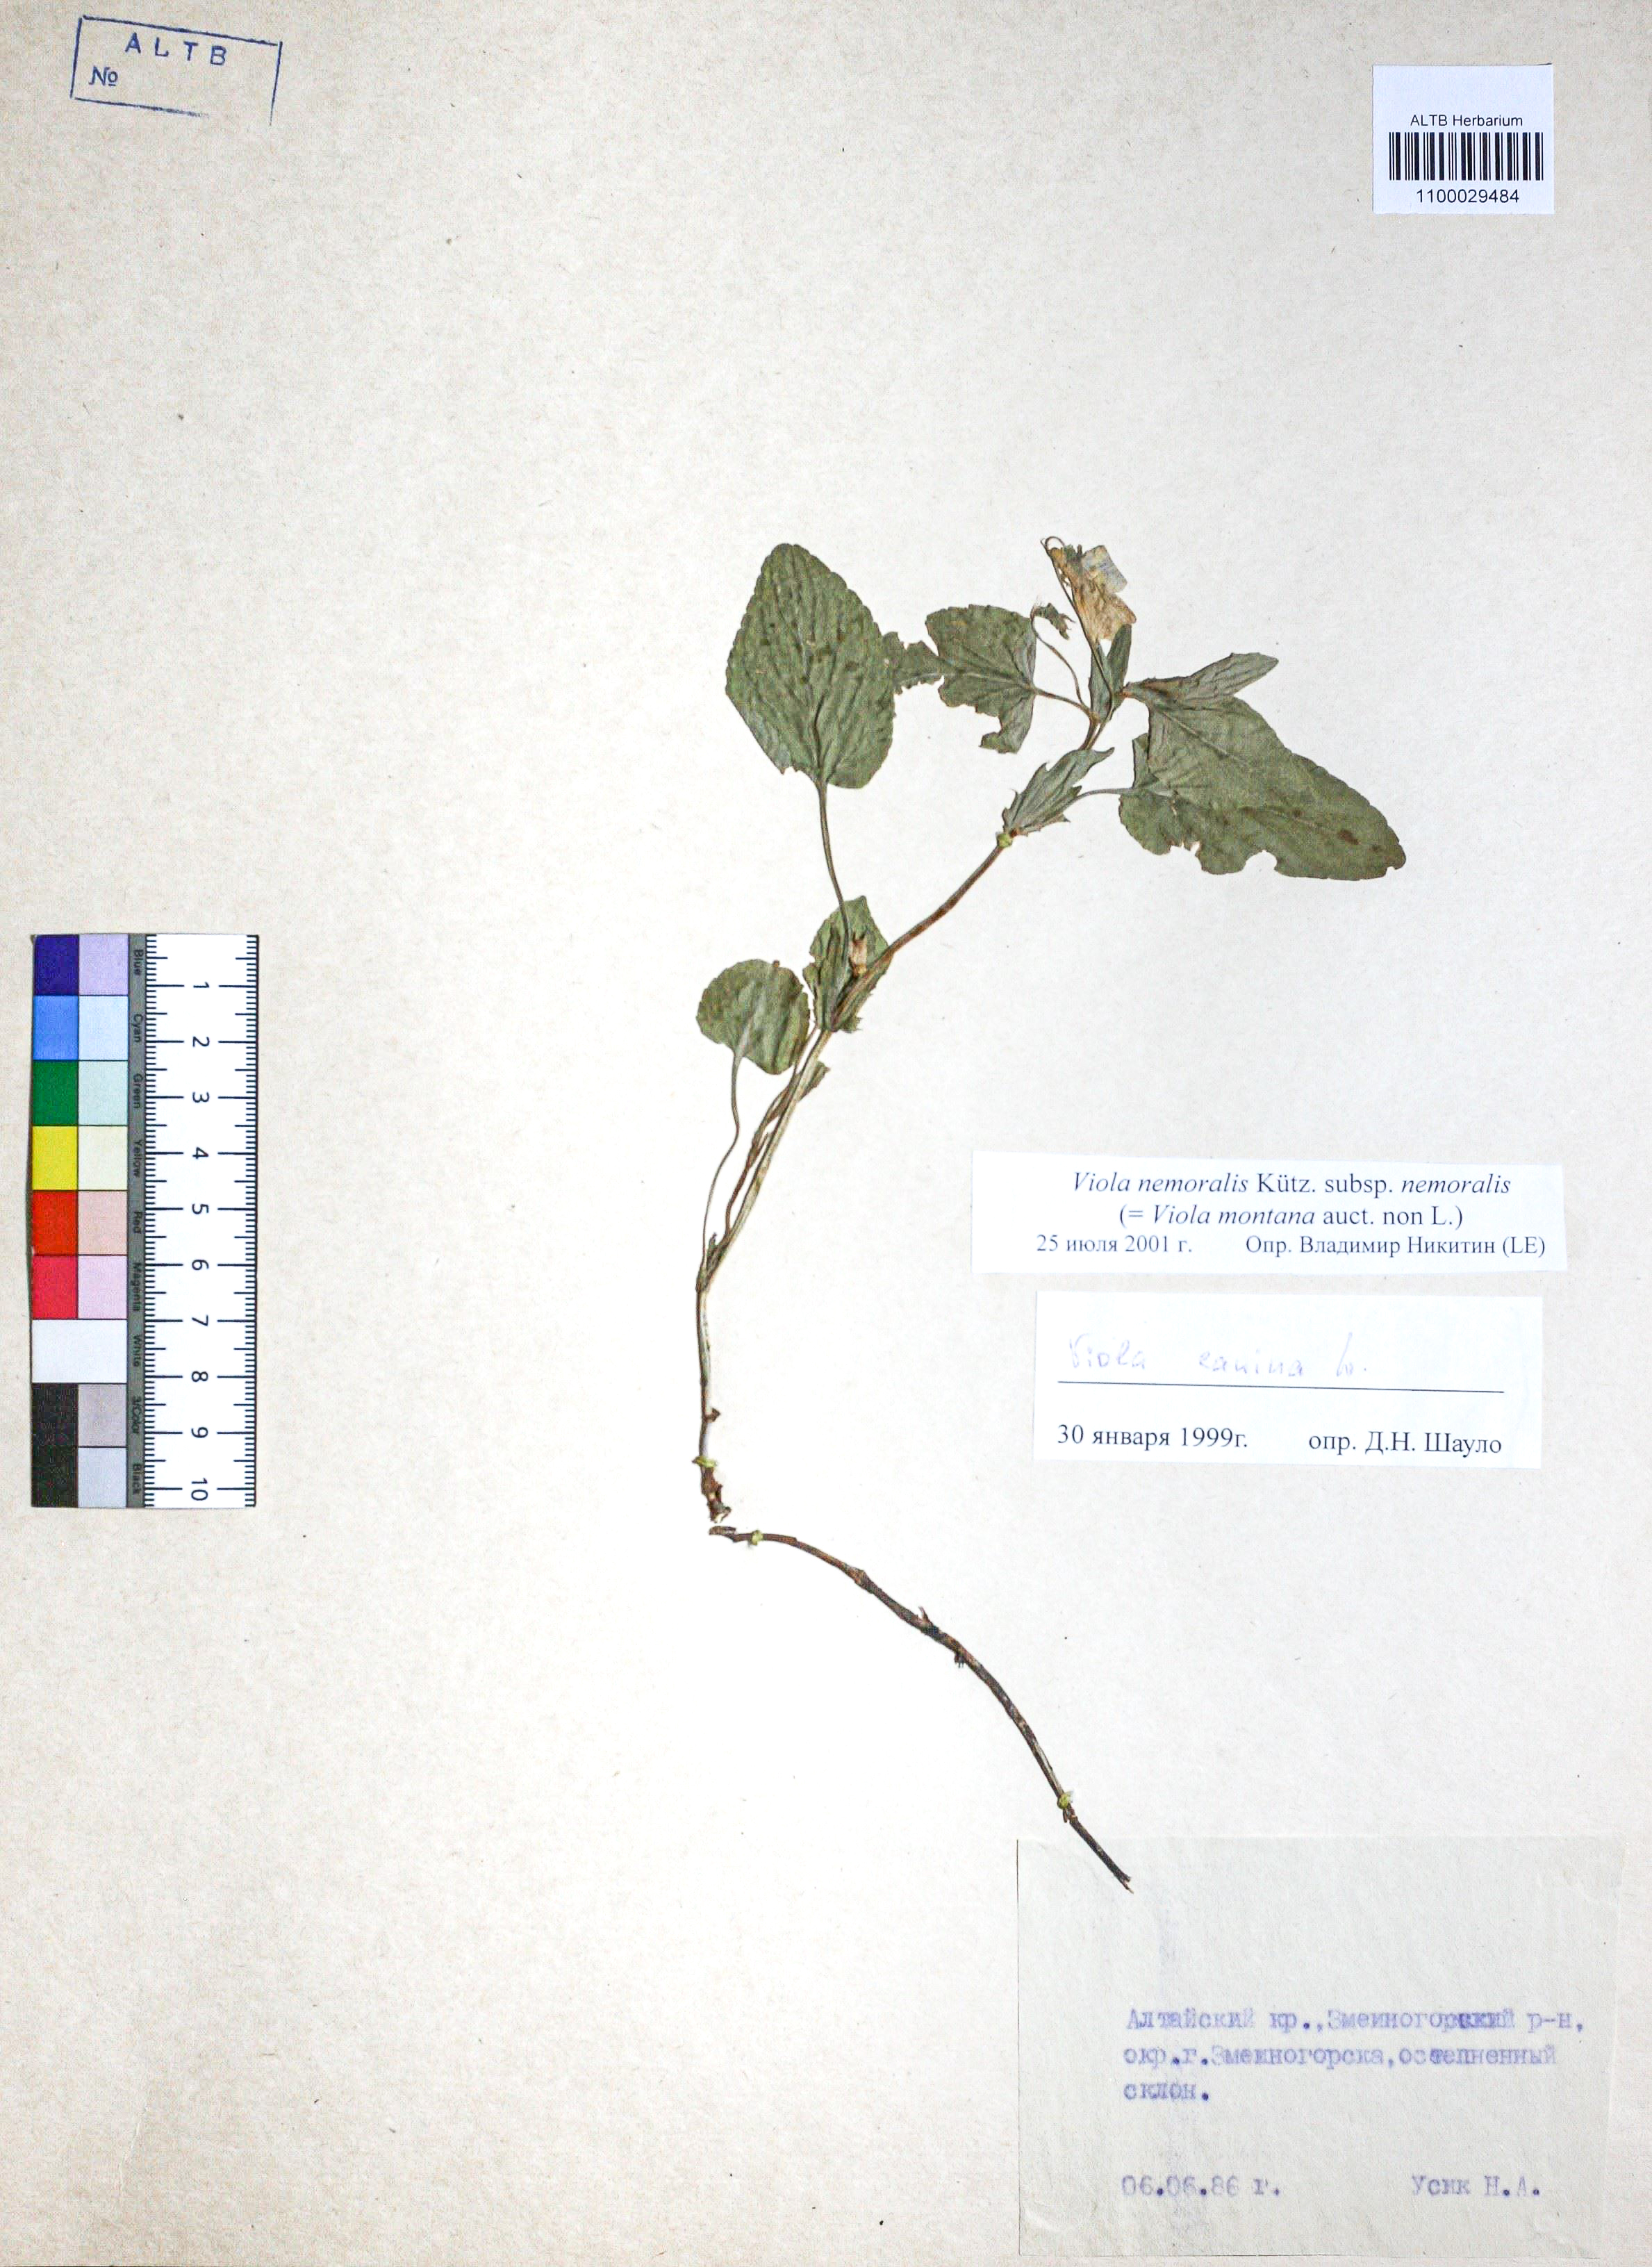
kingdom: Plantae
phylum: Tracheophyta
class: Magnoliopsida
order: Malpighiales
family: Violaceae
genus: Viola
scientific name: Viola ruppii
